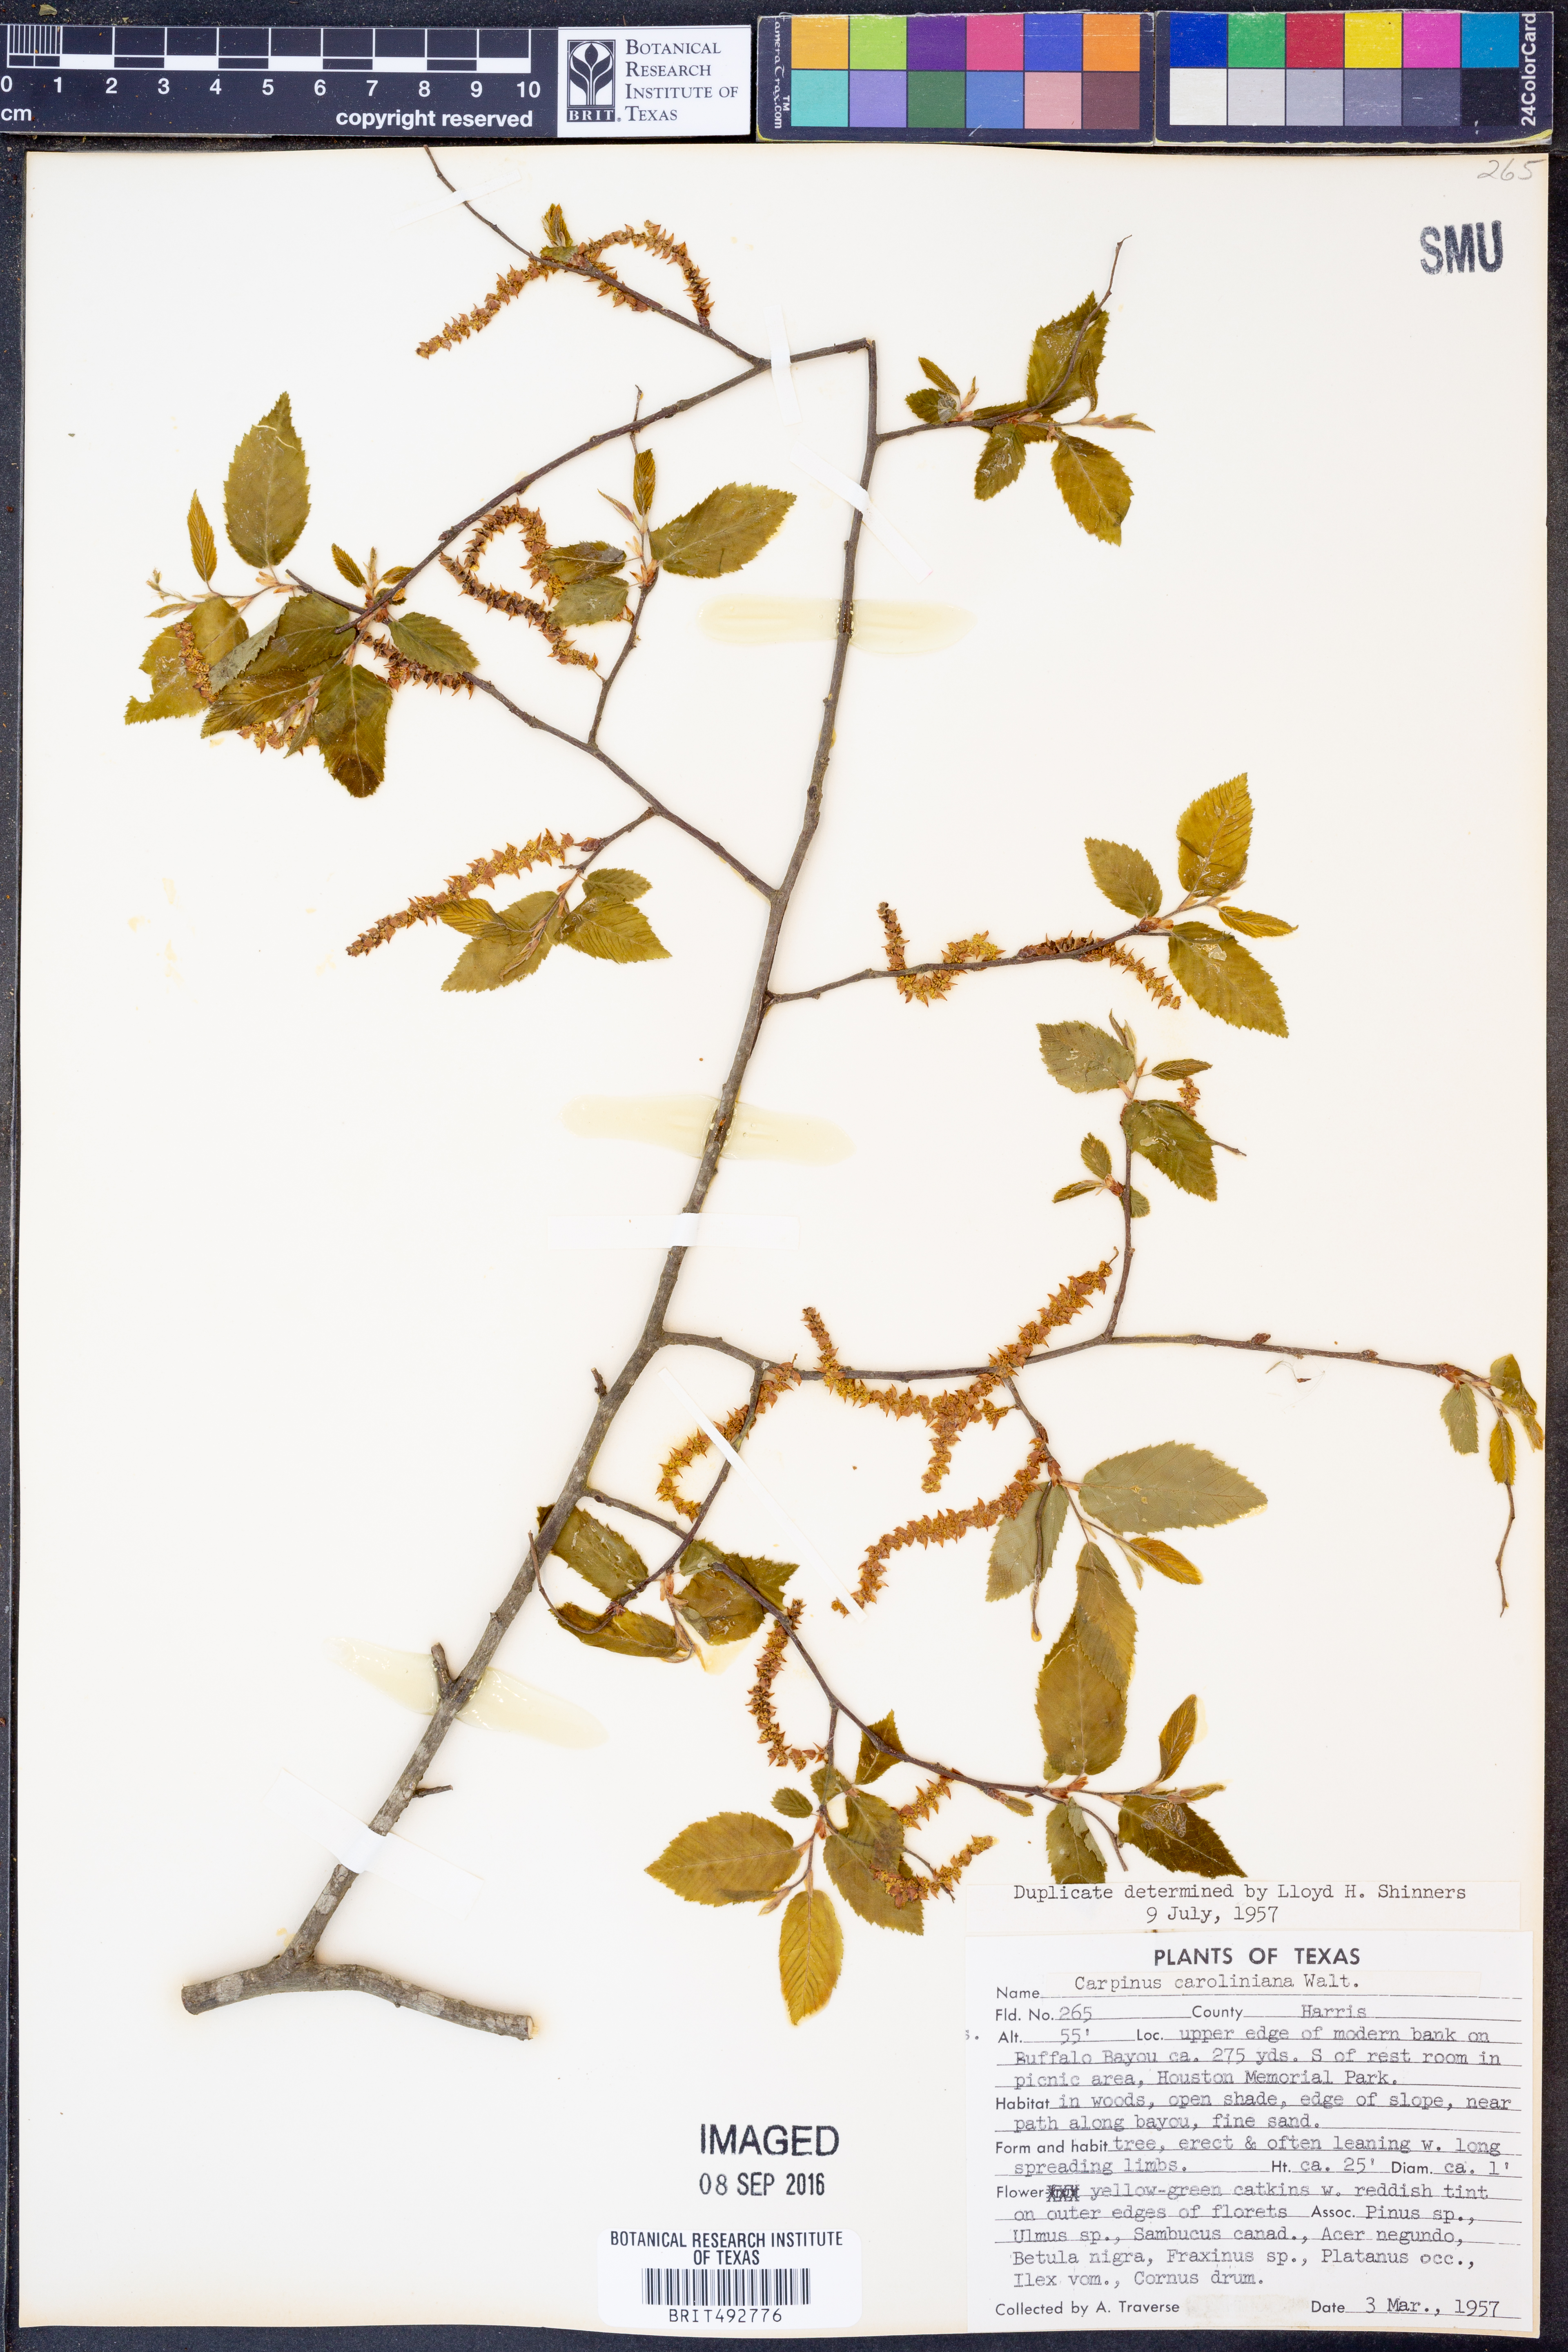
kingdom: Plantae
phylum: Tracheophyta
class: Magnoliopsida
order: Fagales
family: Betulaceae
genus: Carpinus
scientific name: Carpinus caroliniana
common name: American hornbeam
